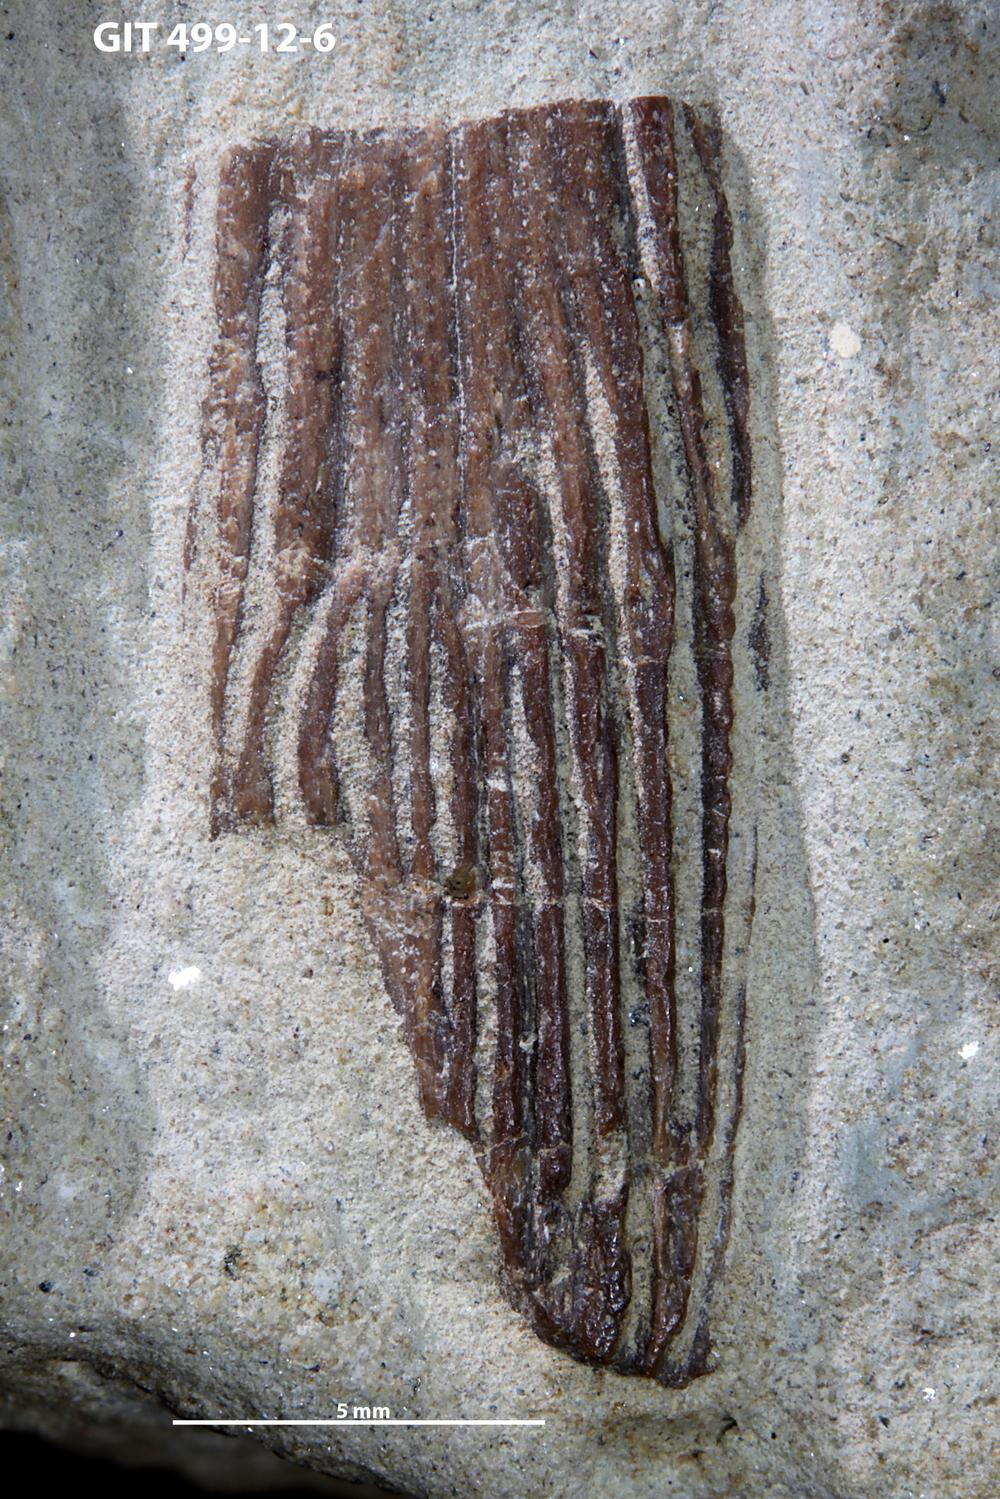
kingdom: Animalia
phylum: Chordata
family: Holoptychiidae
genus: Glyptolepis
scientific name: Glyptolepis
